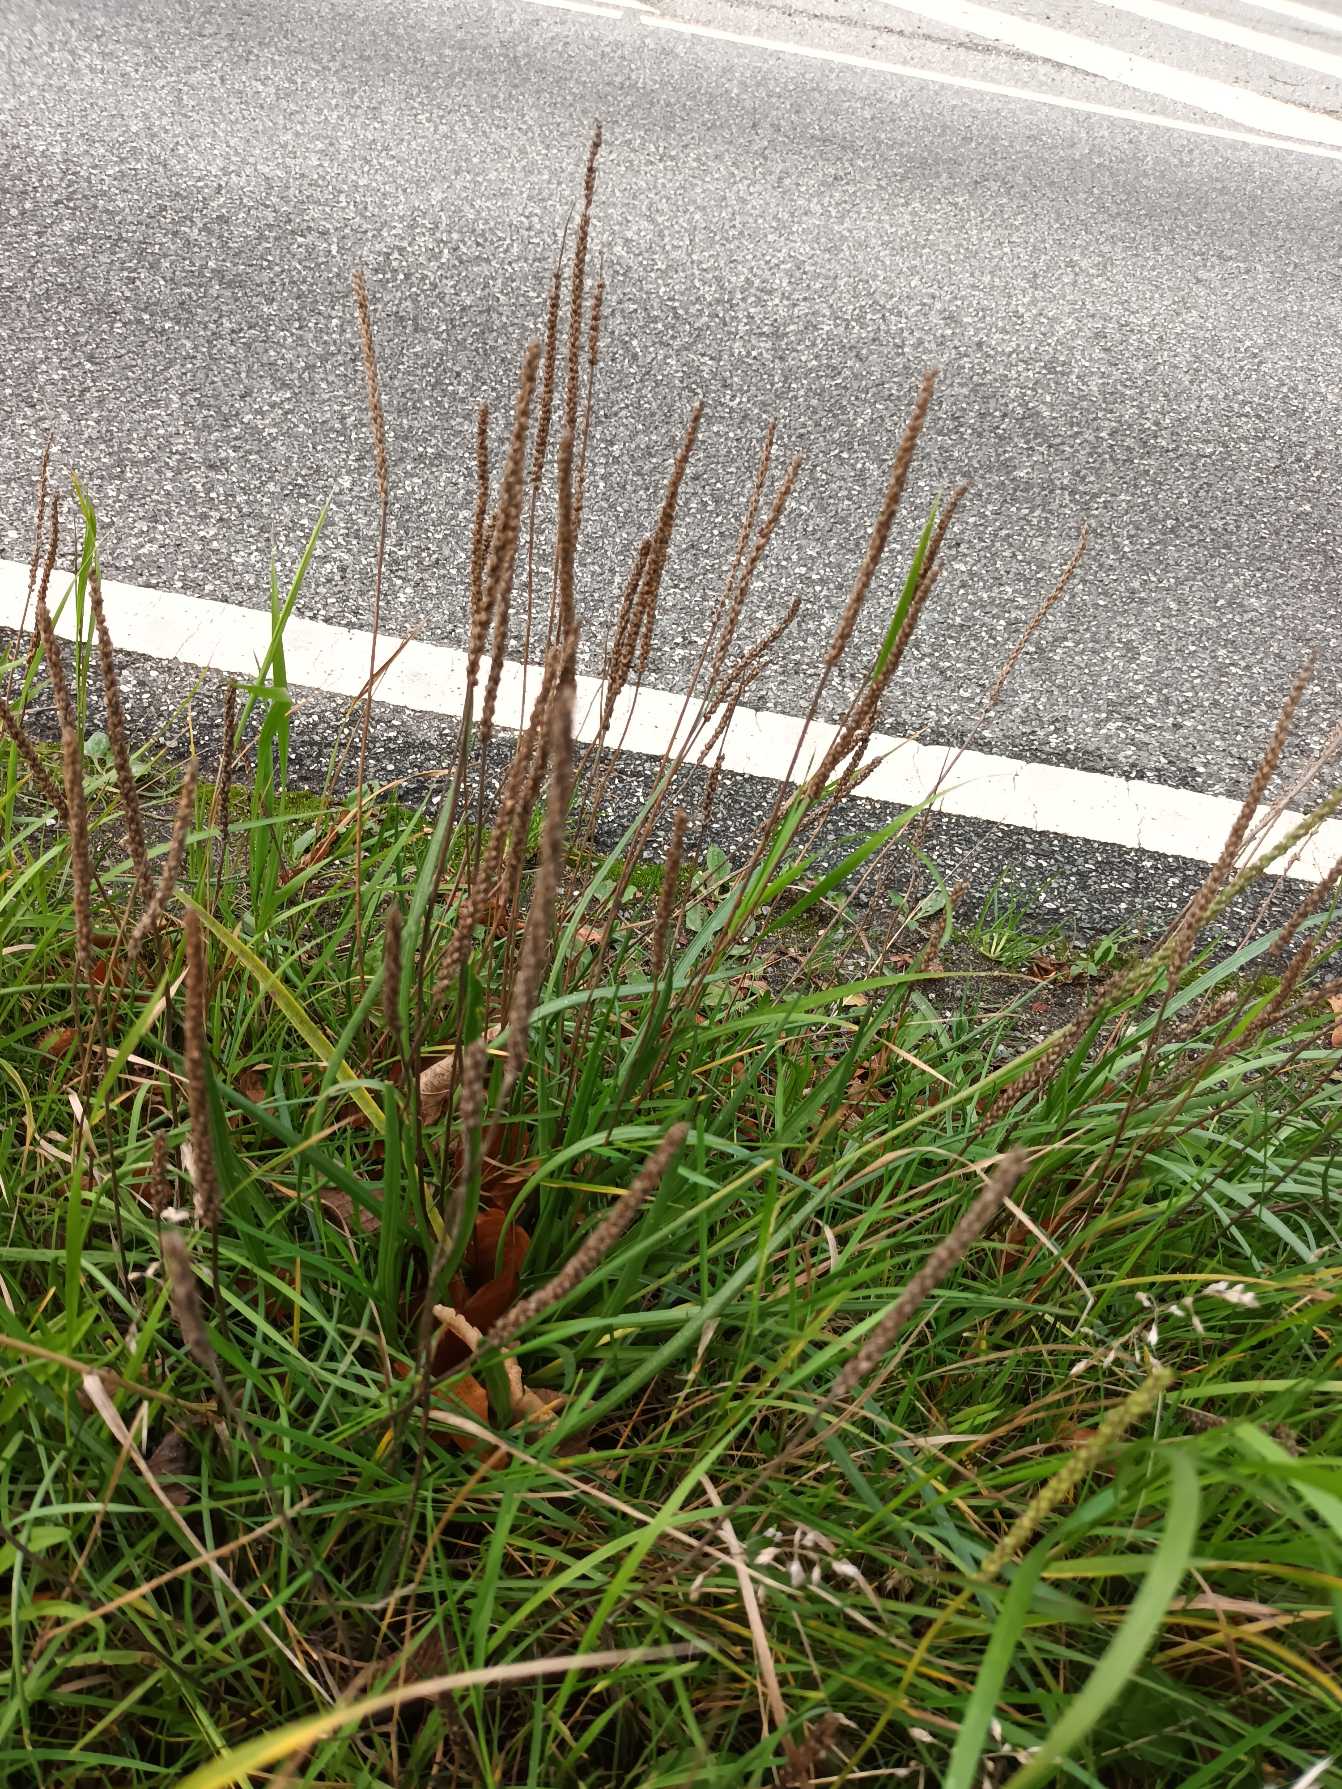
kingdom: Plantae
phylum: Tracheophyta
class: Magnoliopsida
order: Lamiales
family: Plantaginaceae
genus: Plantago
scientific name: Plantago maritima
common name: Strand-vejbred
